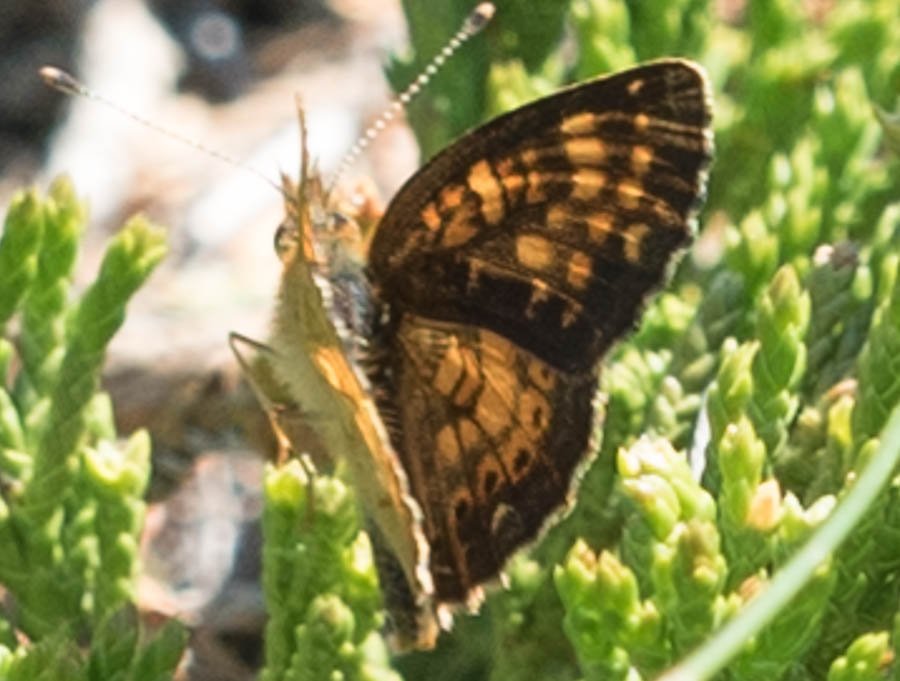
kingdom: Animalia
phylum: Arthropoda
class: Insecta
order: Lepidoptera
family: Nymphalidae
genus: Phyciodes
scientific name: Phyciodes tharos
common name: Field Crescent
